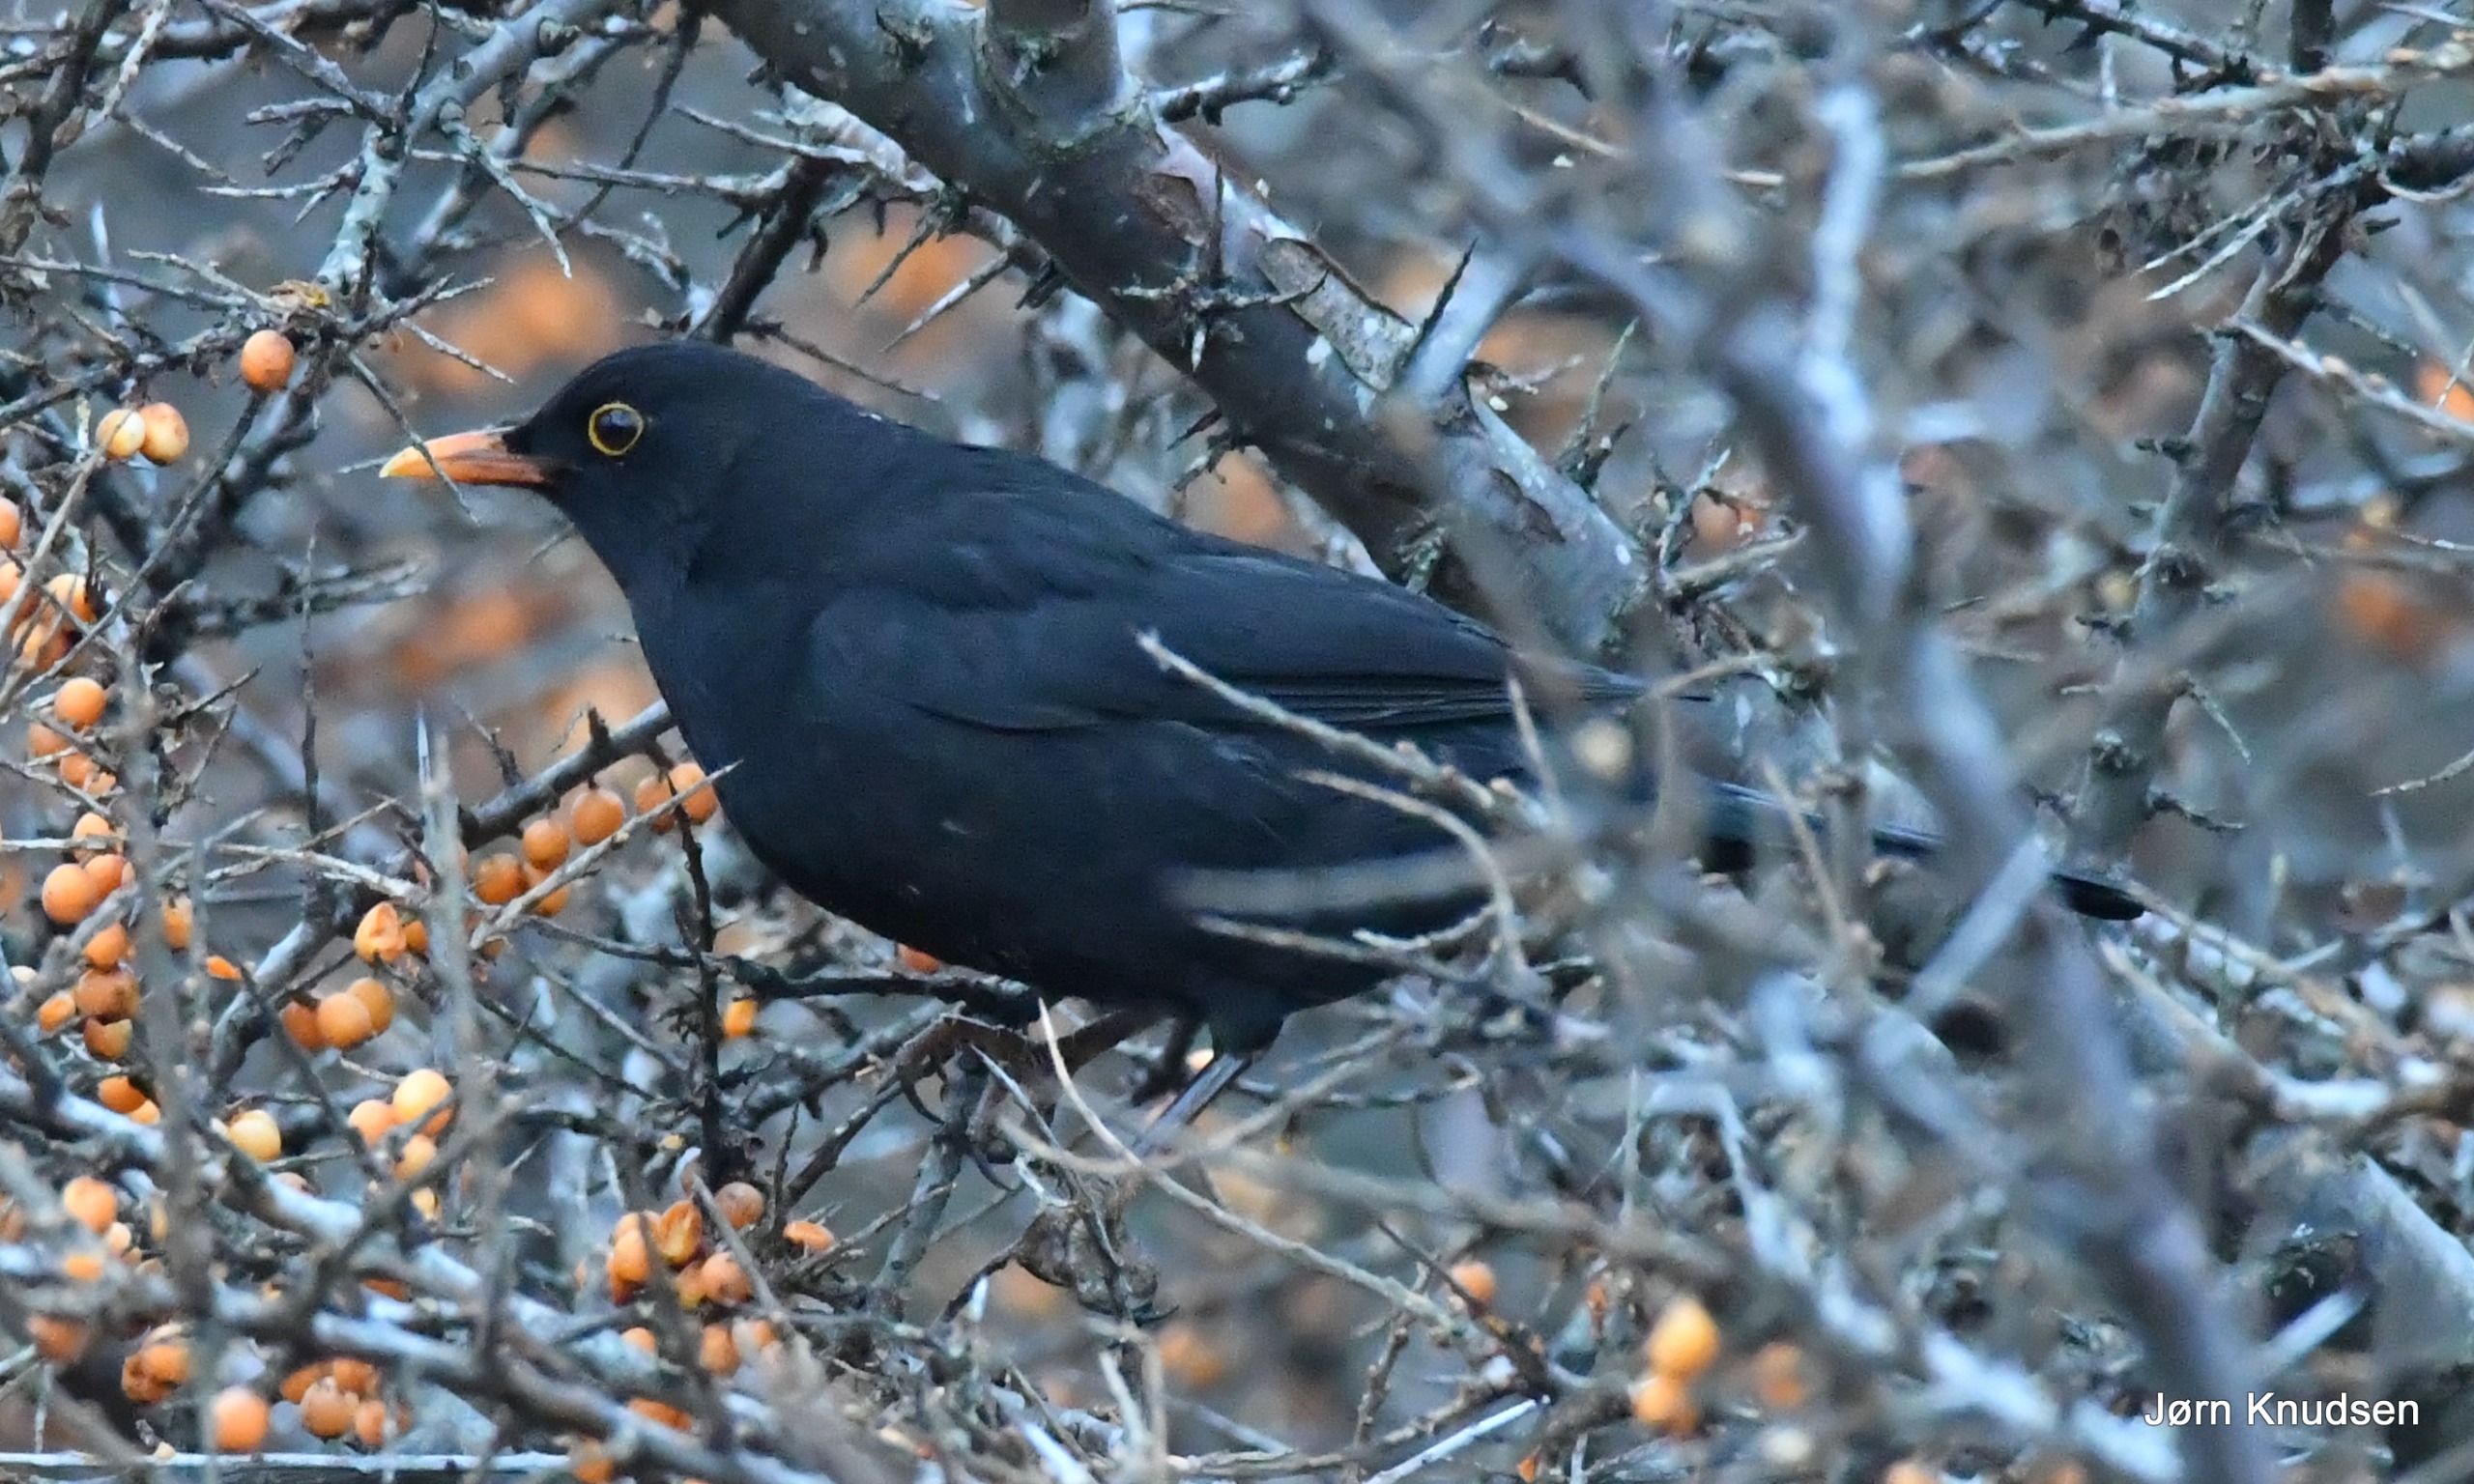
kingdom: Animalia
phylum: Chordata
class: Aves
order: Passeriformes
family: Turdidae
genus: Turdus
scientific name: Turdus merula
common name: Solsort
